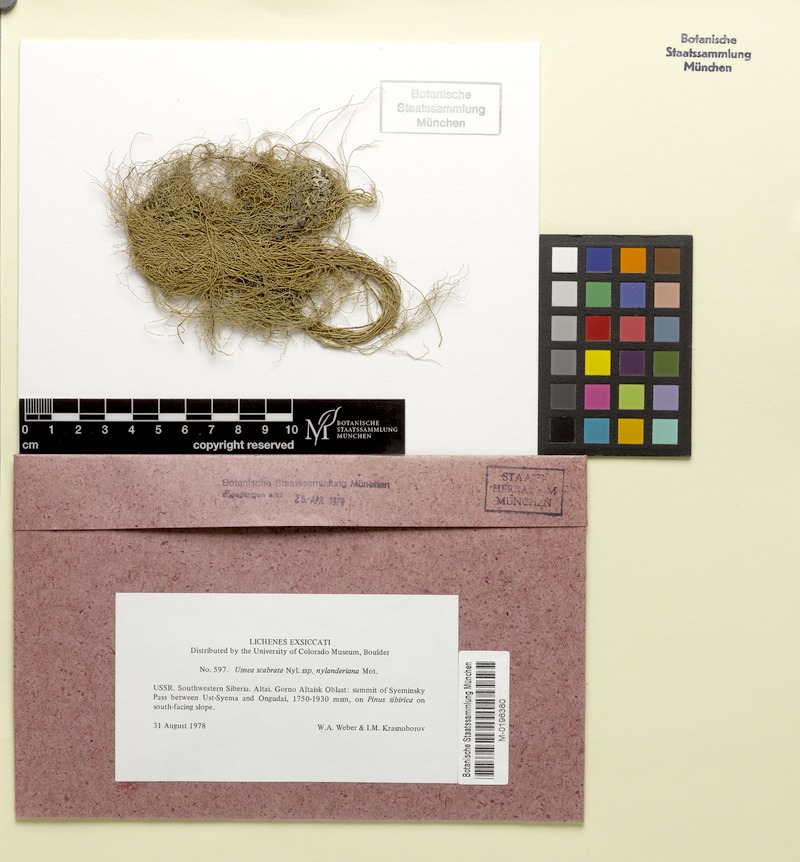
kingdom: Fungi
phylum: Ascomycota
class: Lecanoromycetes
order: Lecanorales
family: Parmeliaceae
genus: Usnea
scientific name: Usnea barbata
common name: Old man's beard lichen
